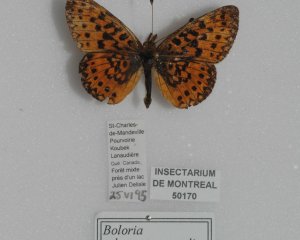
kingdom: Animalia
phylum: Arthropoda
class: Insecta
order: Lepidoptera
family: Nymphalidae
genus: Boloria
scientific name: Boloria selene
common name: Silver-bordered Fritillary
